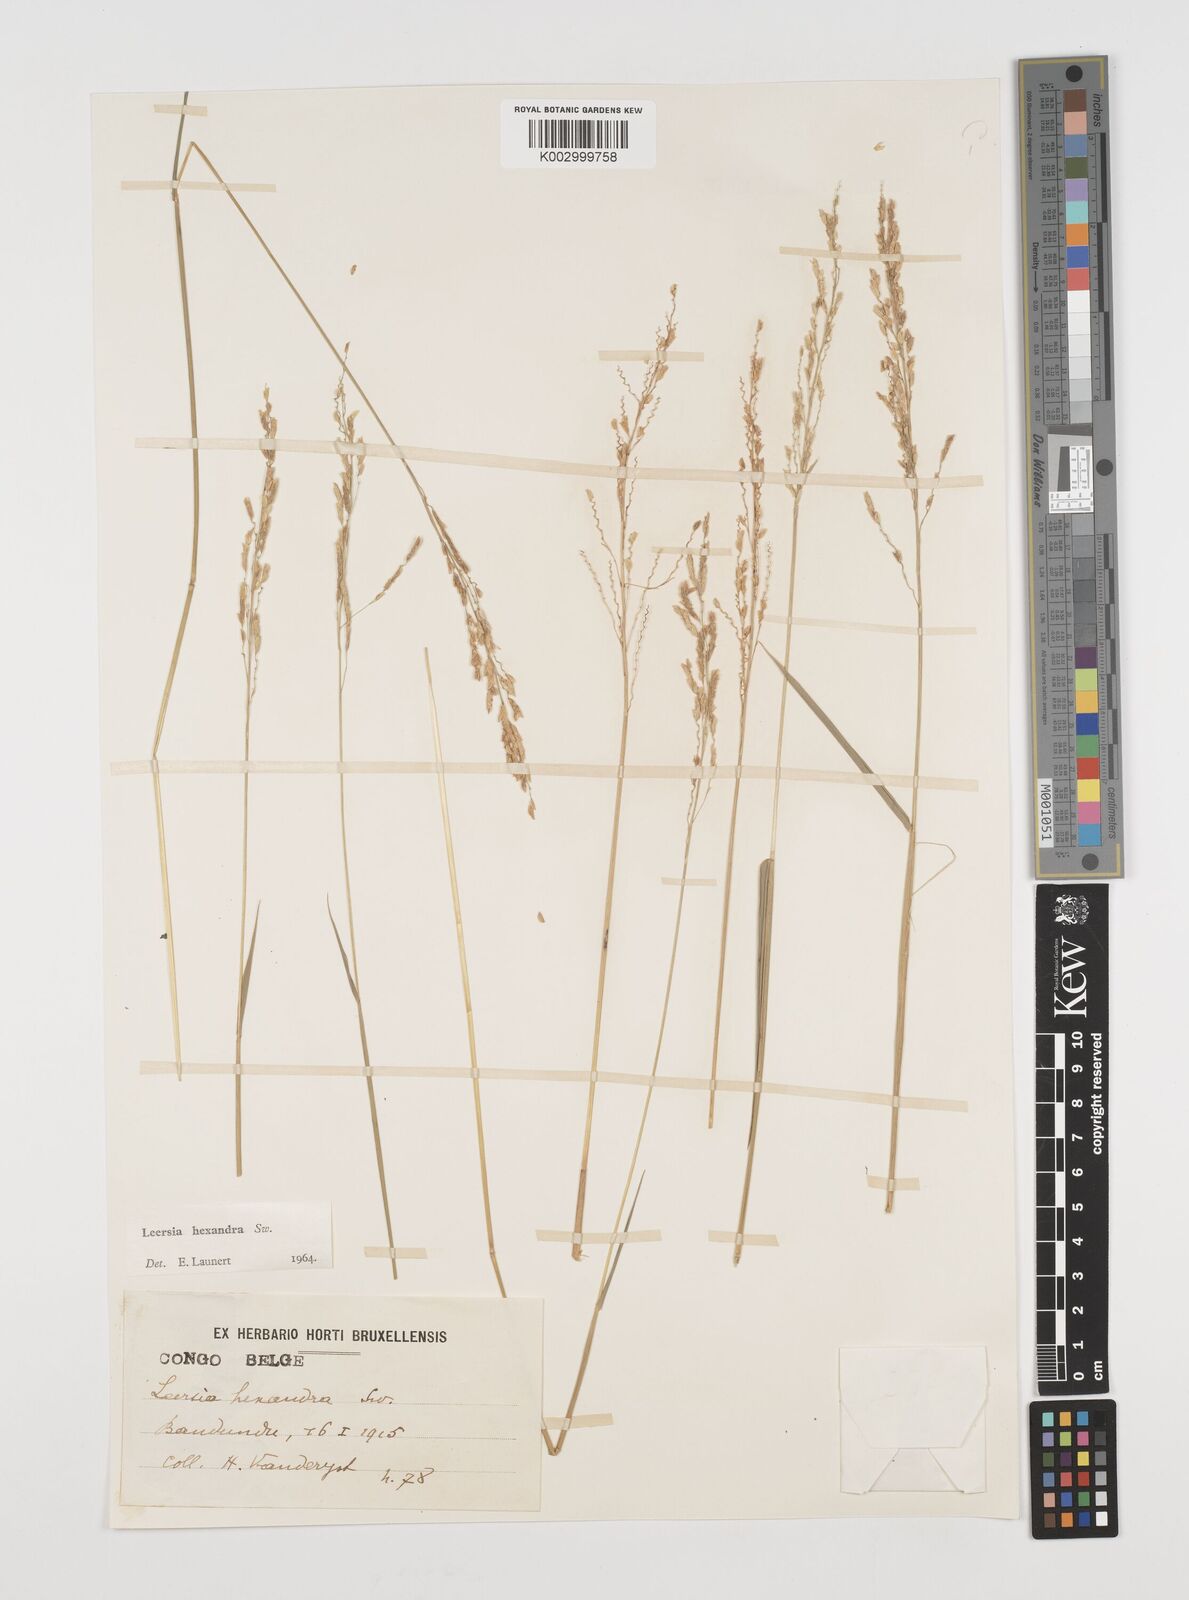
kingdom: Plantae
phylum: Tracheophyta
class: Liliopsida
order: Poales
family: Poaceae
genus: Leersia
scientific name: Leersia hexandra
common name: Southern cut grass
